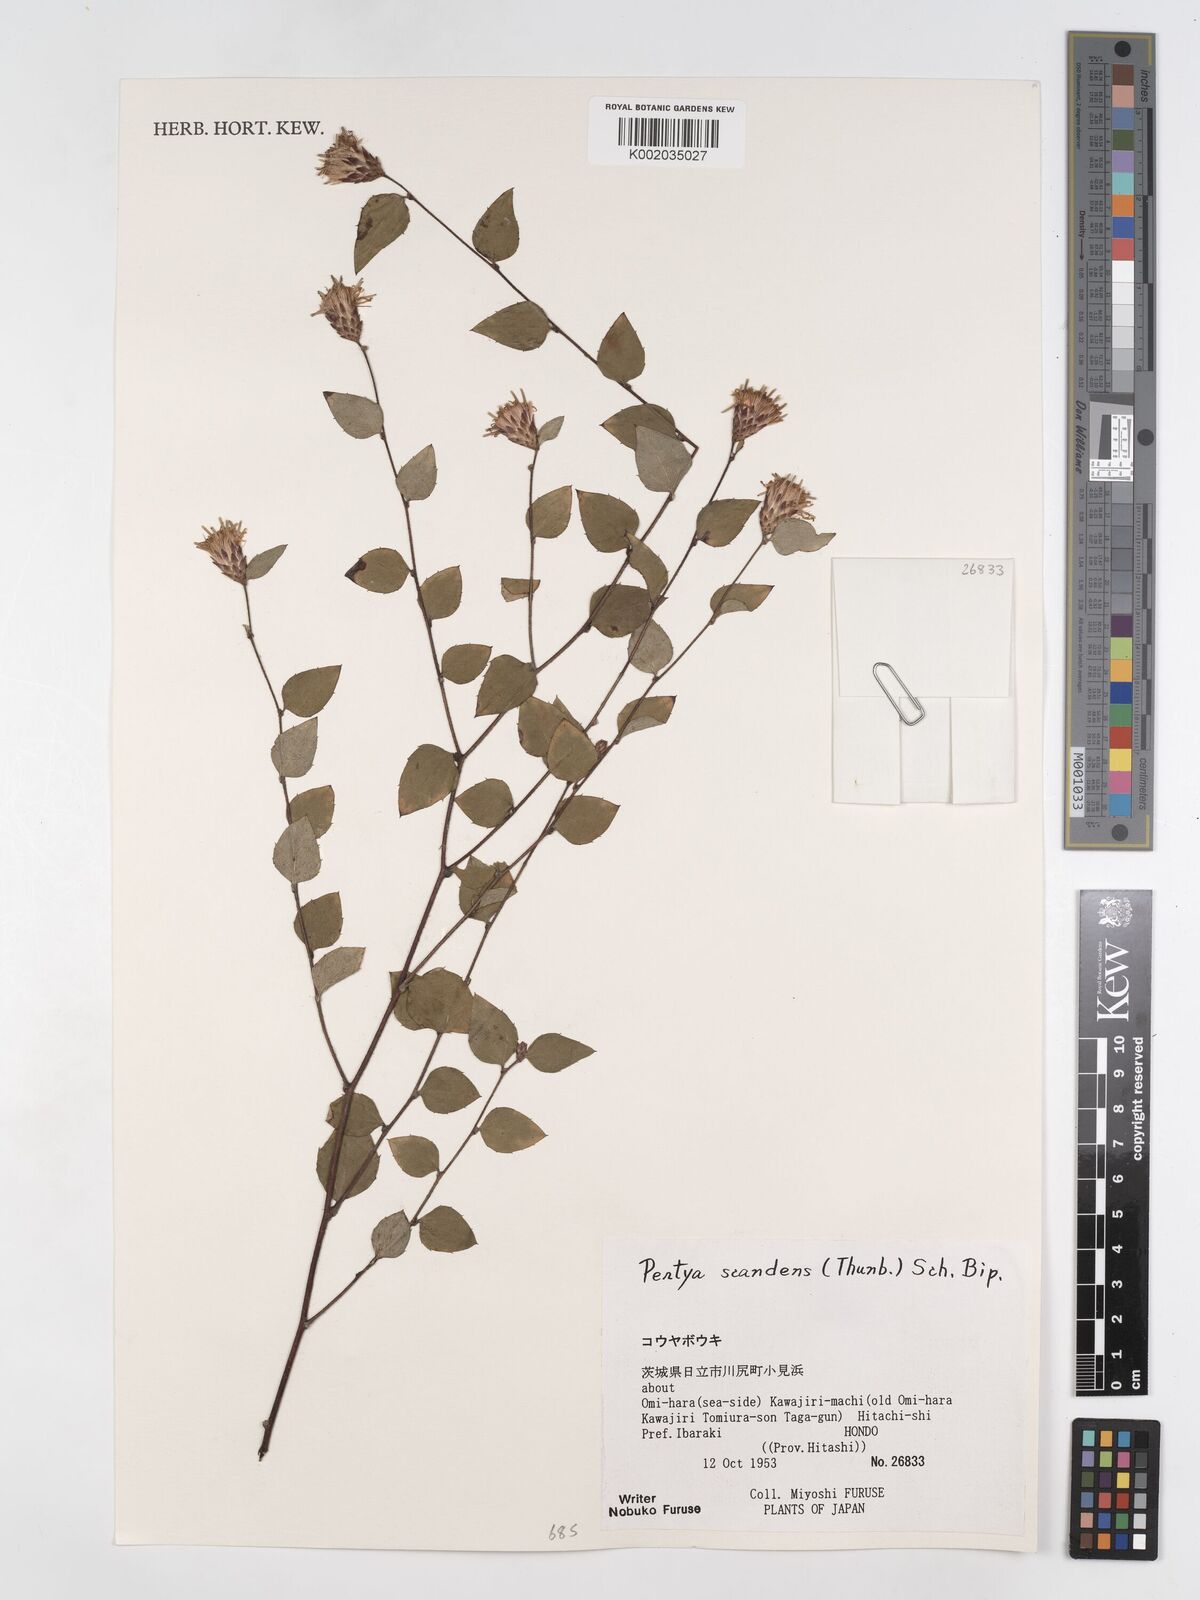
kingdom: Plantae
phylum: Tracheophyta
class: Magnoliopsida
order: Asterales
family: Asteraceae
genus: Pertya
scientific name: Pertya scandens
